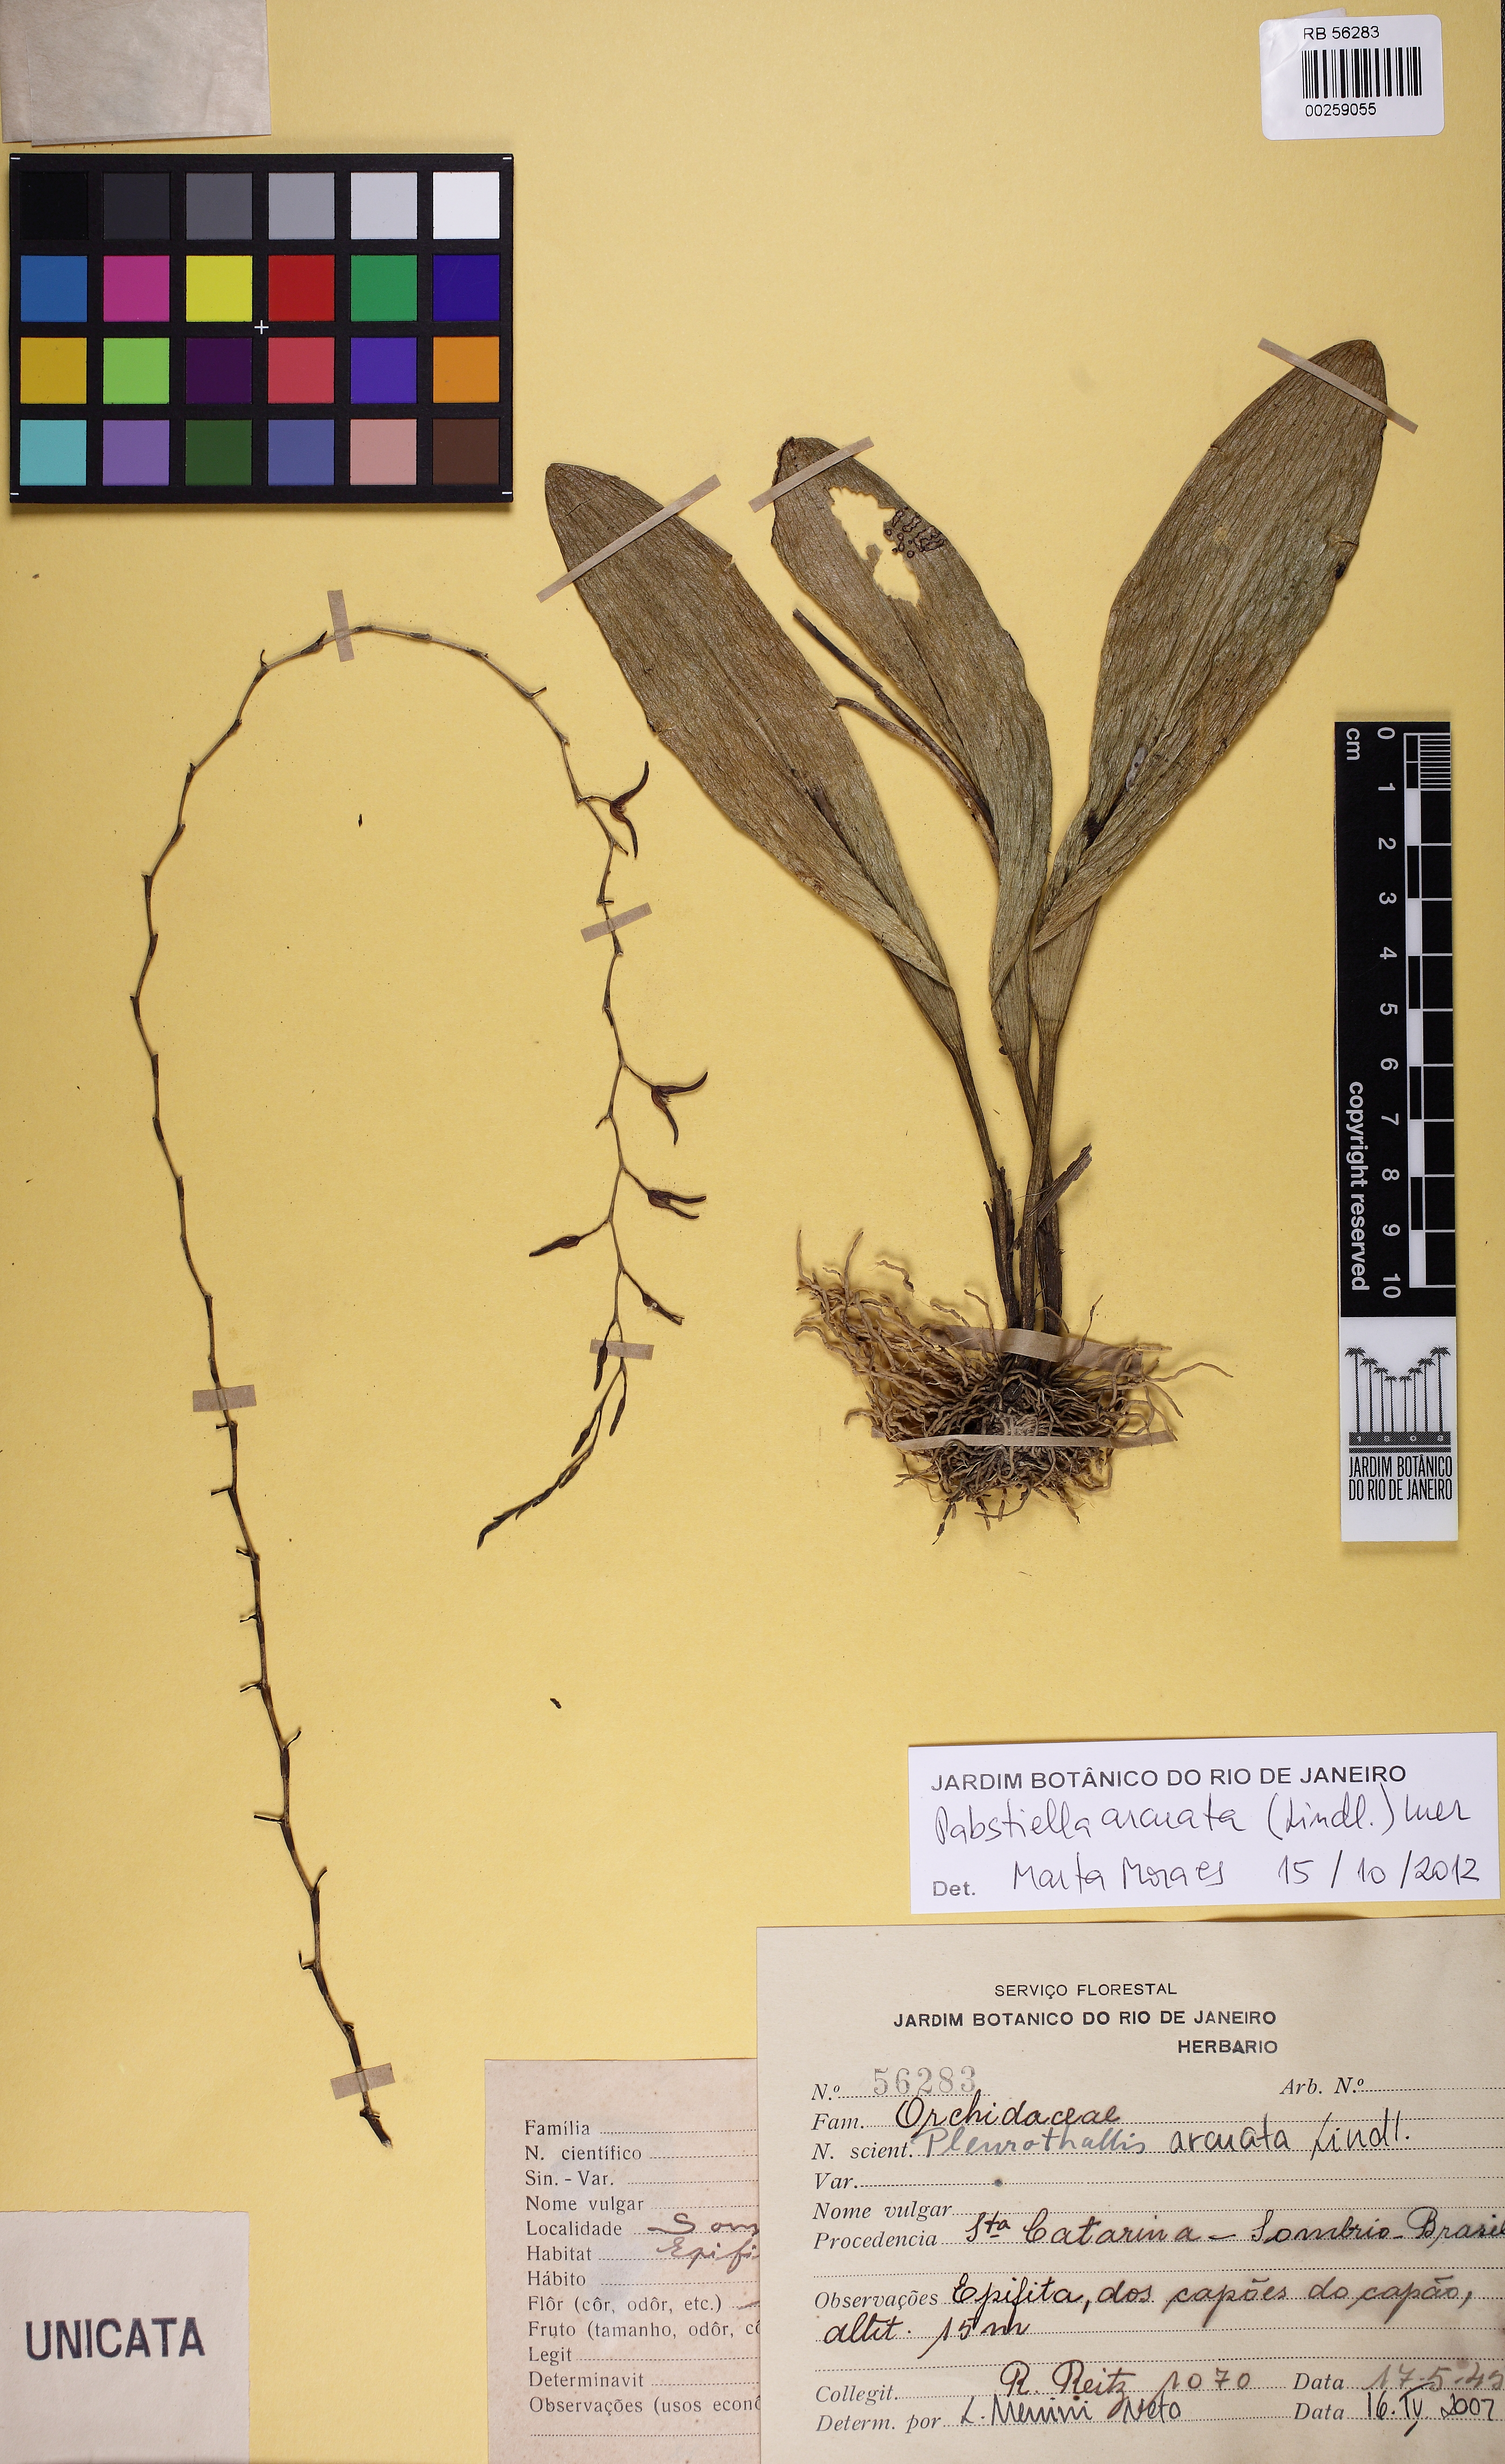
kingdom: Plantae
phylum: Tracheophyta
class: Liliopsida
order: Asparagales
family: Orchidaceae
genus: Pabstiella
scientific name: Pabstiella alligatorifera
